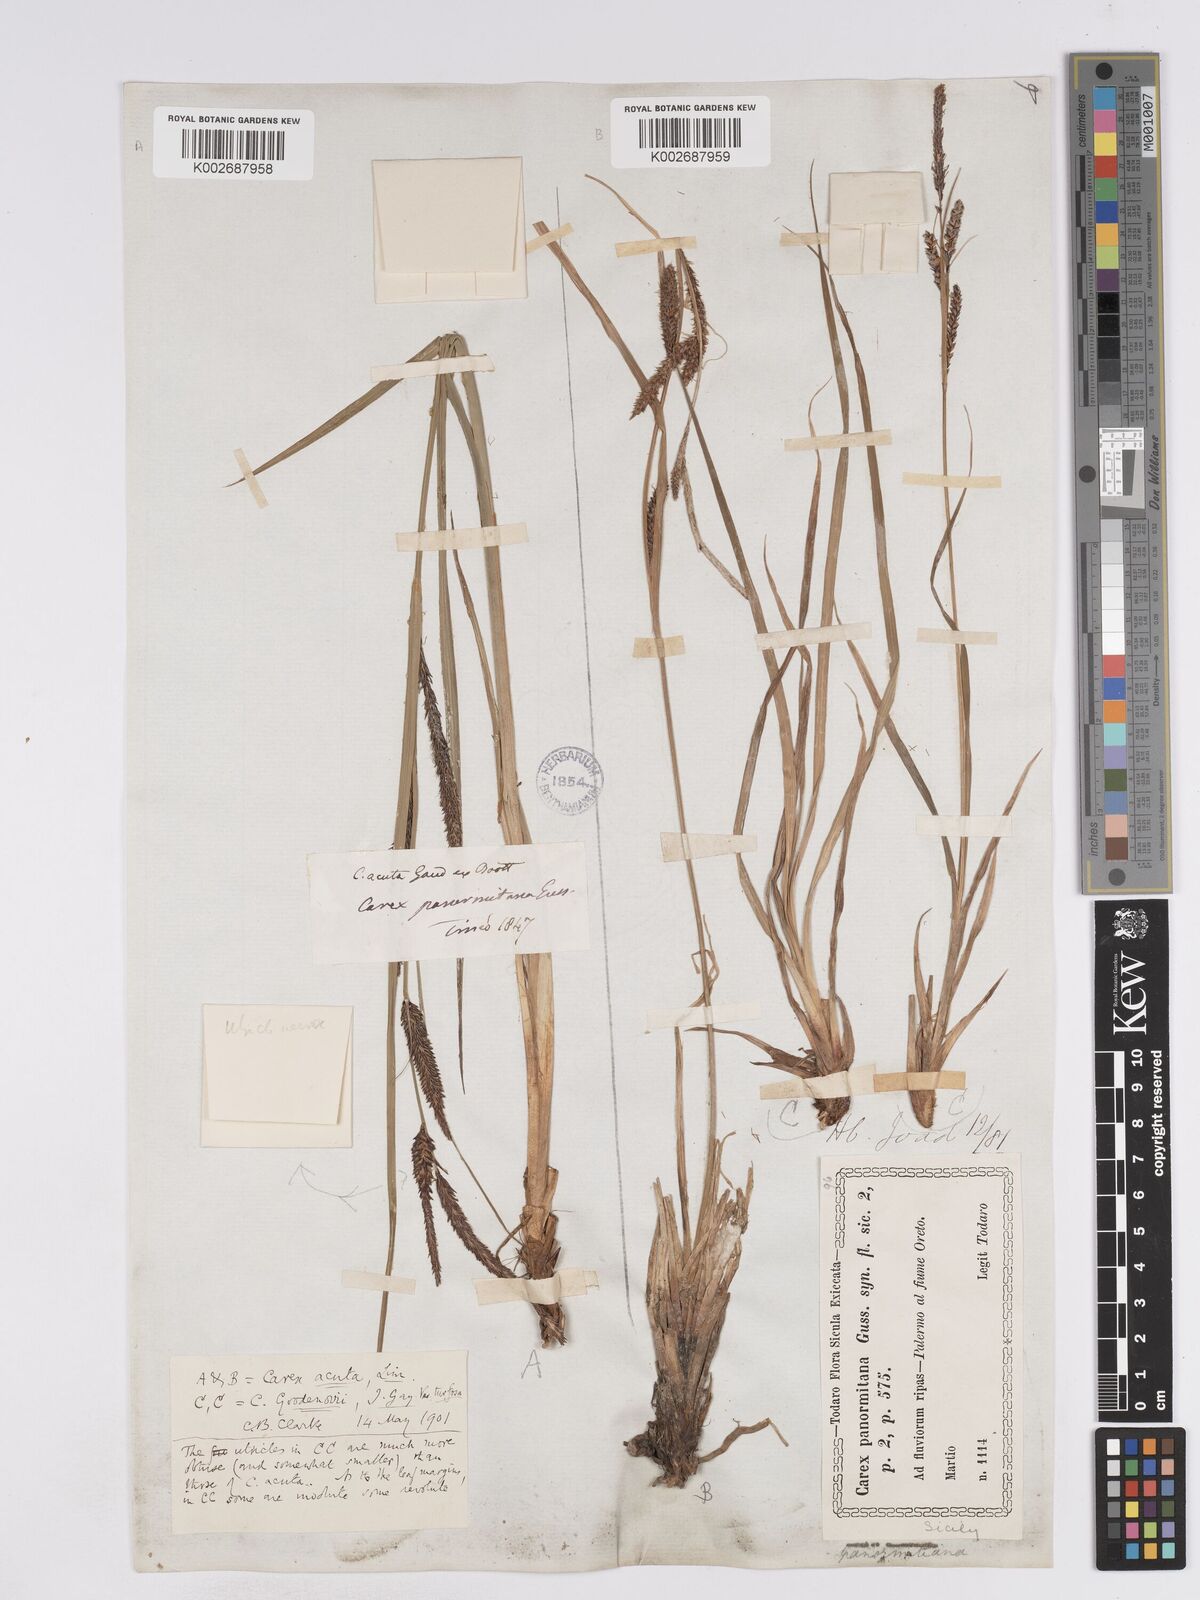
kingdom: Plantae
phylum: Tracheophyta
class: Liliopsida
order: Poales
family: Cyperaceae
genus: Carex
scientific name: Carex acuta
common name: Slender tufted-sedge
